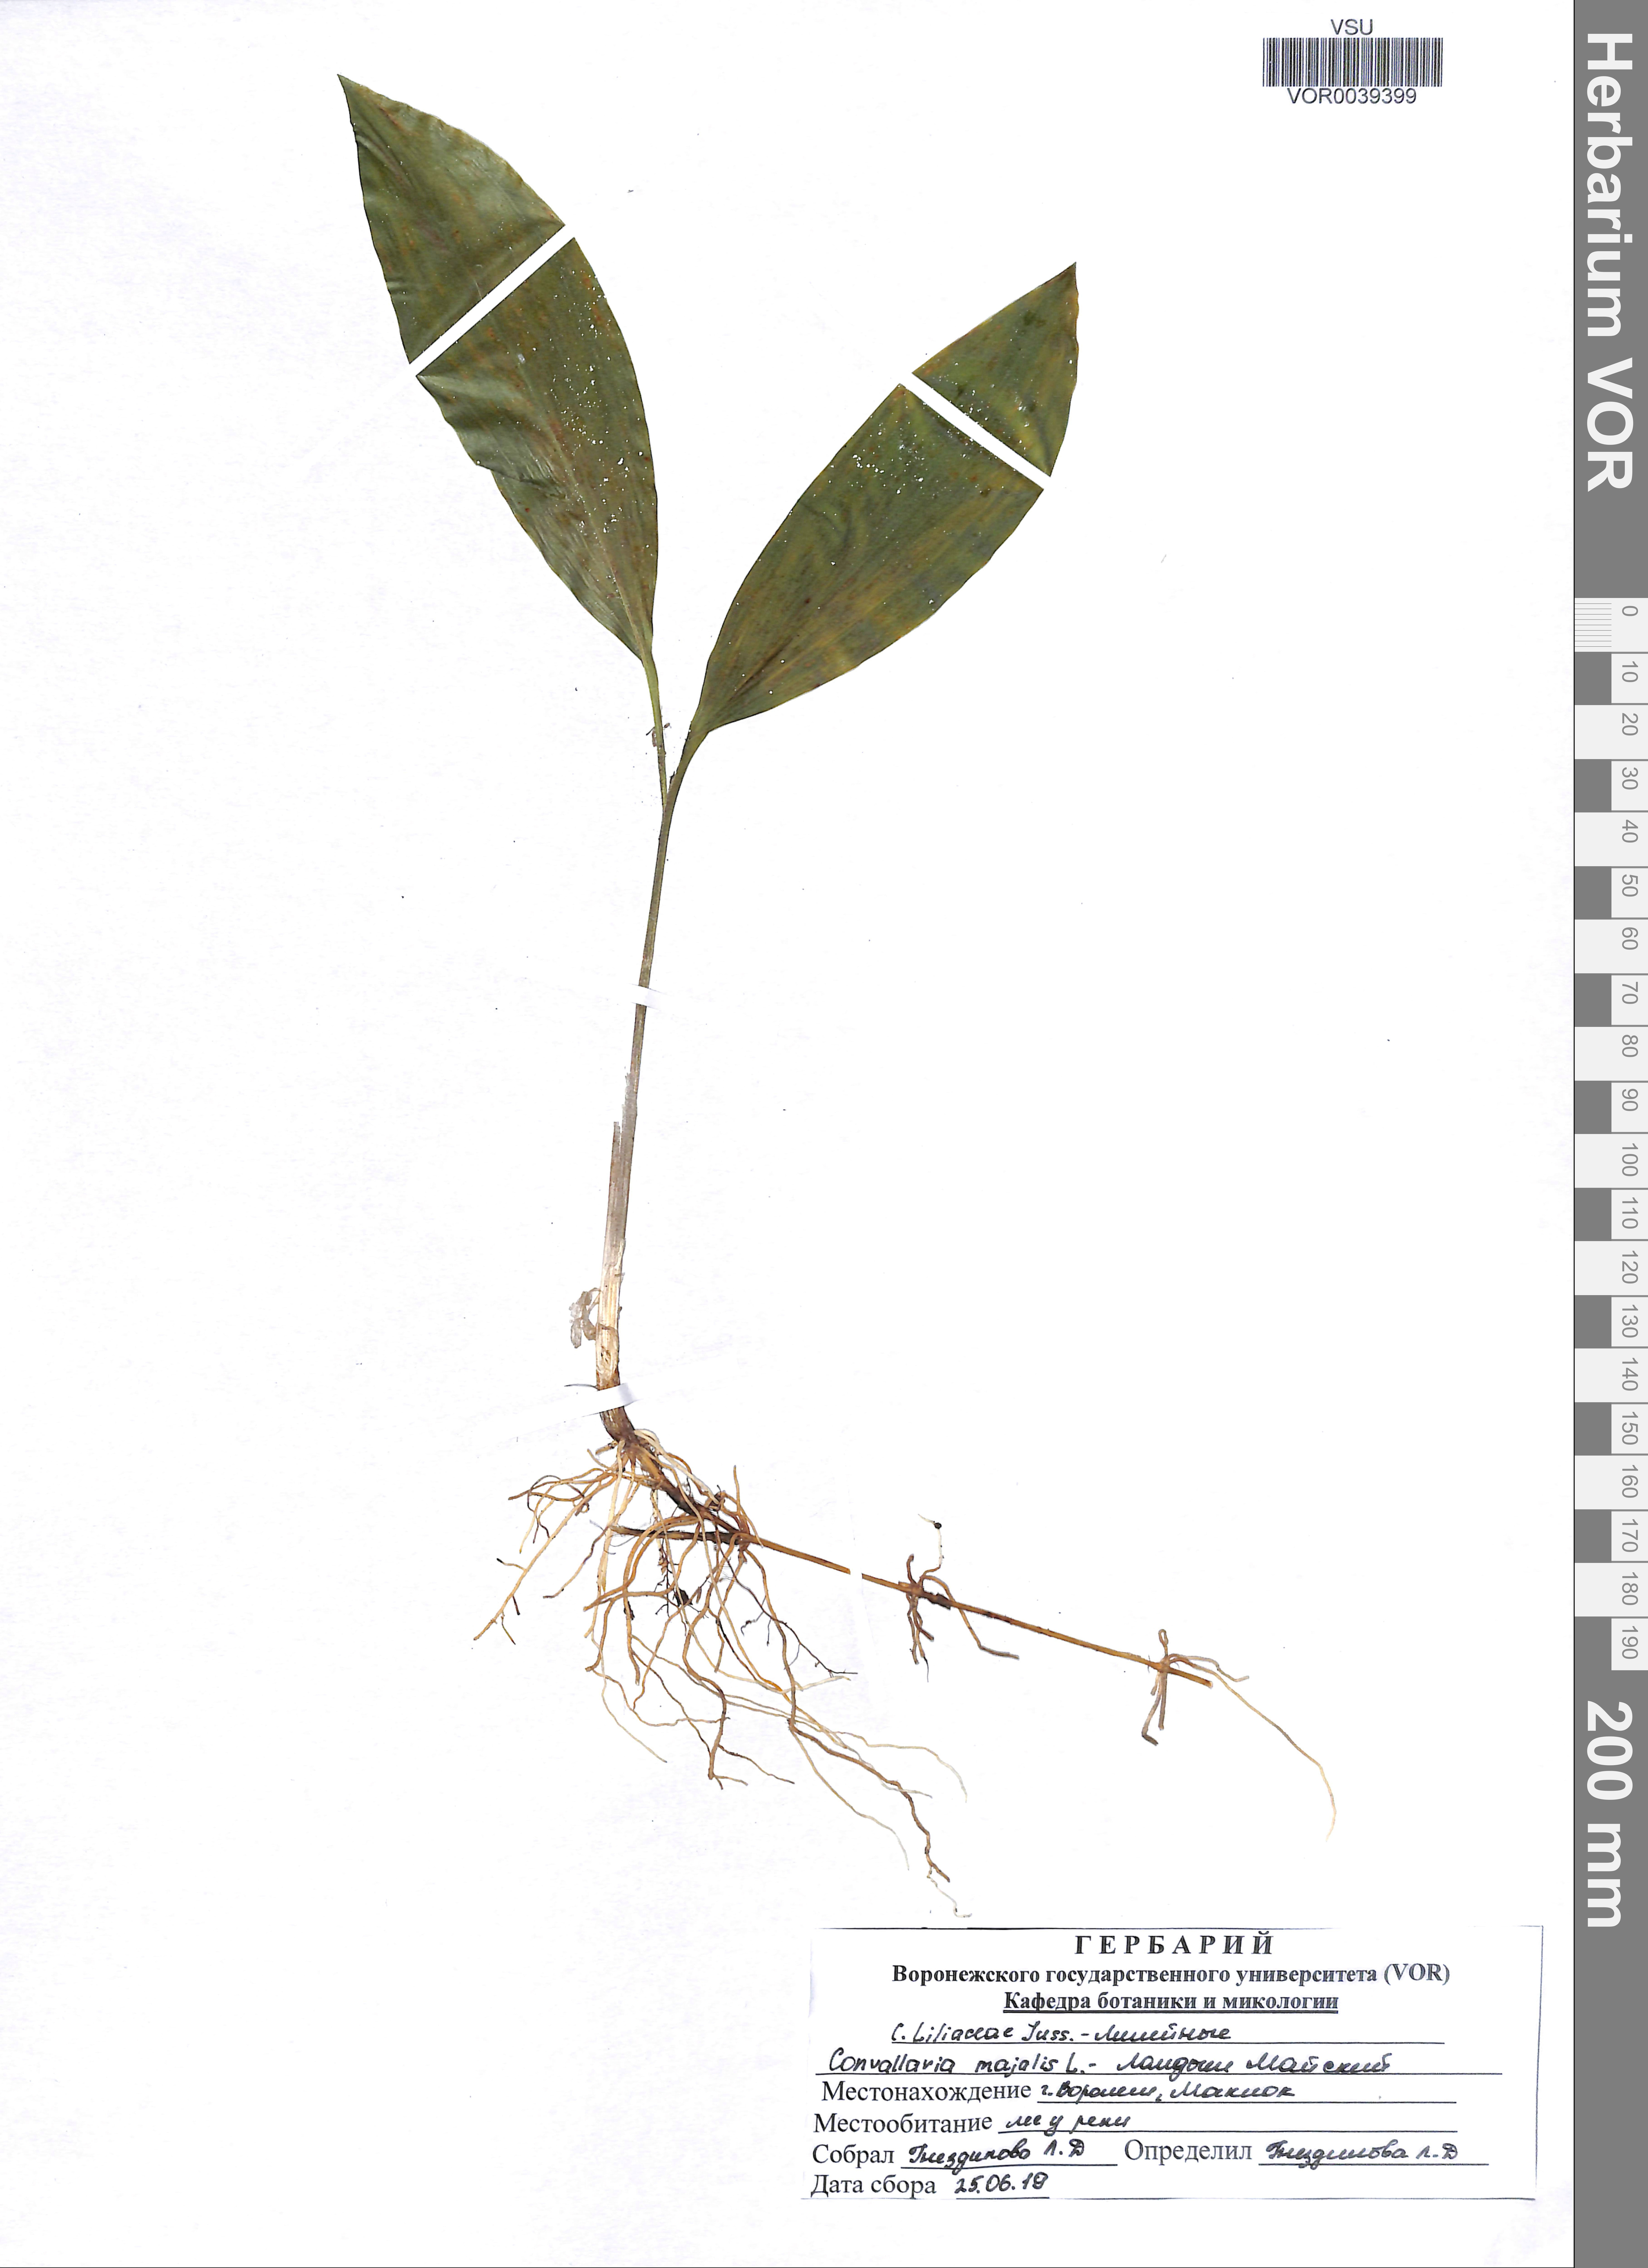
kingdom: Plantae
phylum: Tracheophyta
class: Liliopsida
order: Asparagales
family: Asparagaceae
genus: Convallaria
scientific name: Convallaria majalis
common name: Lily-of-the-valley
